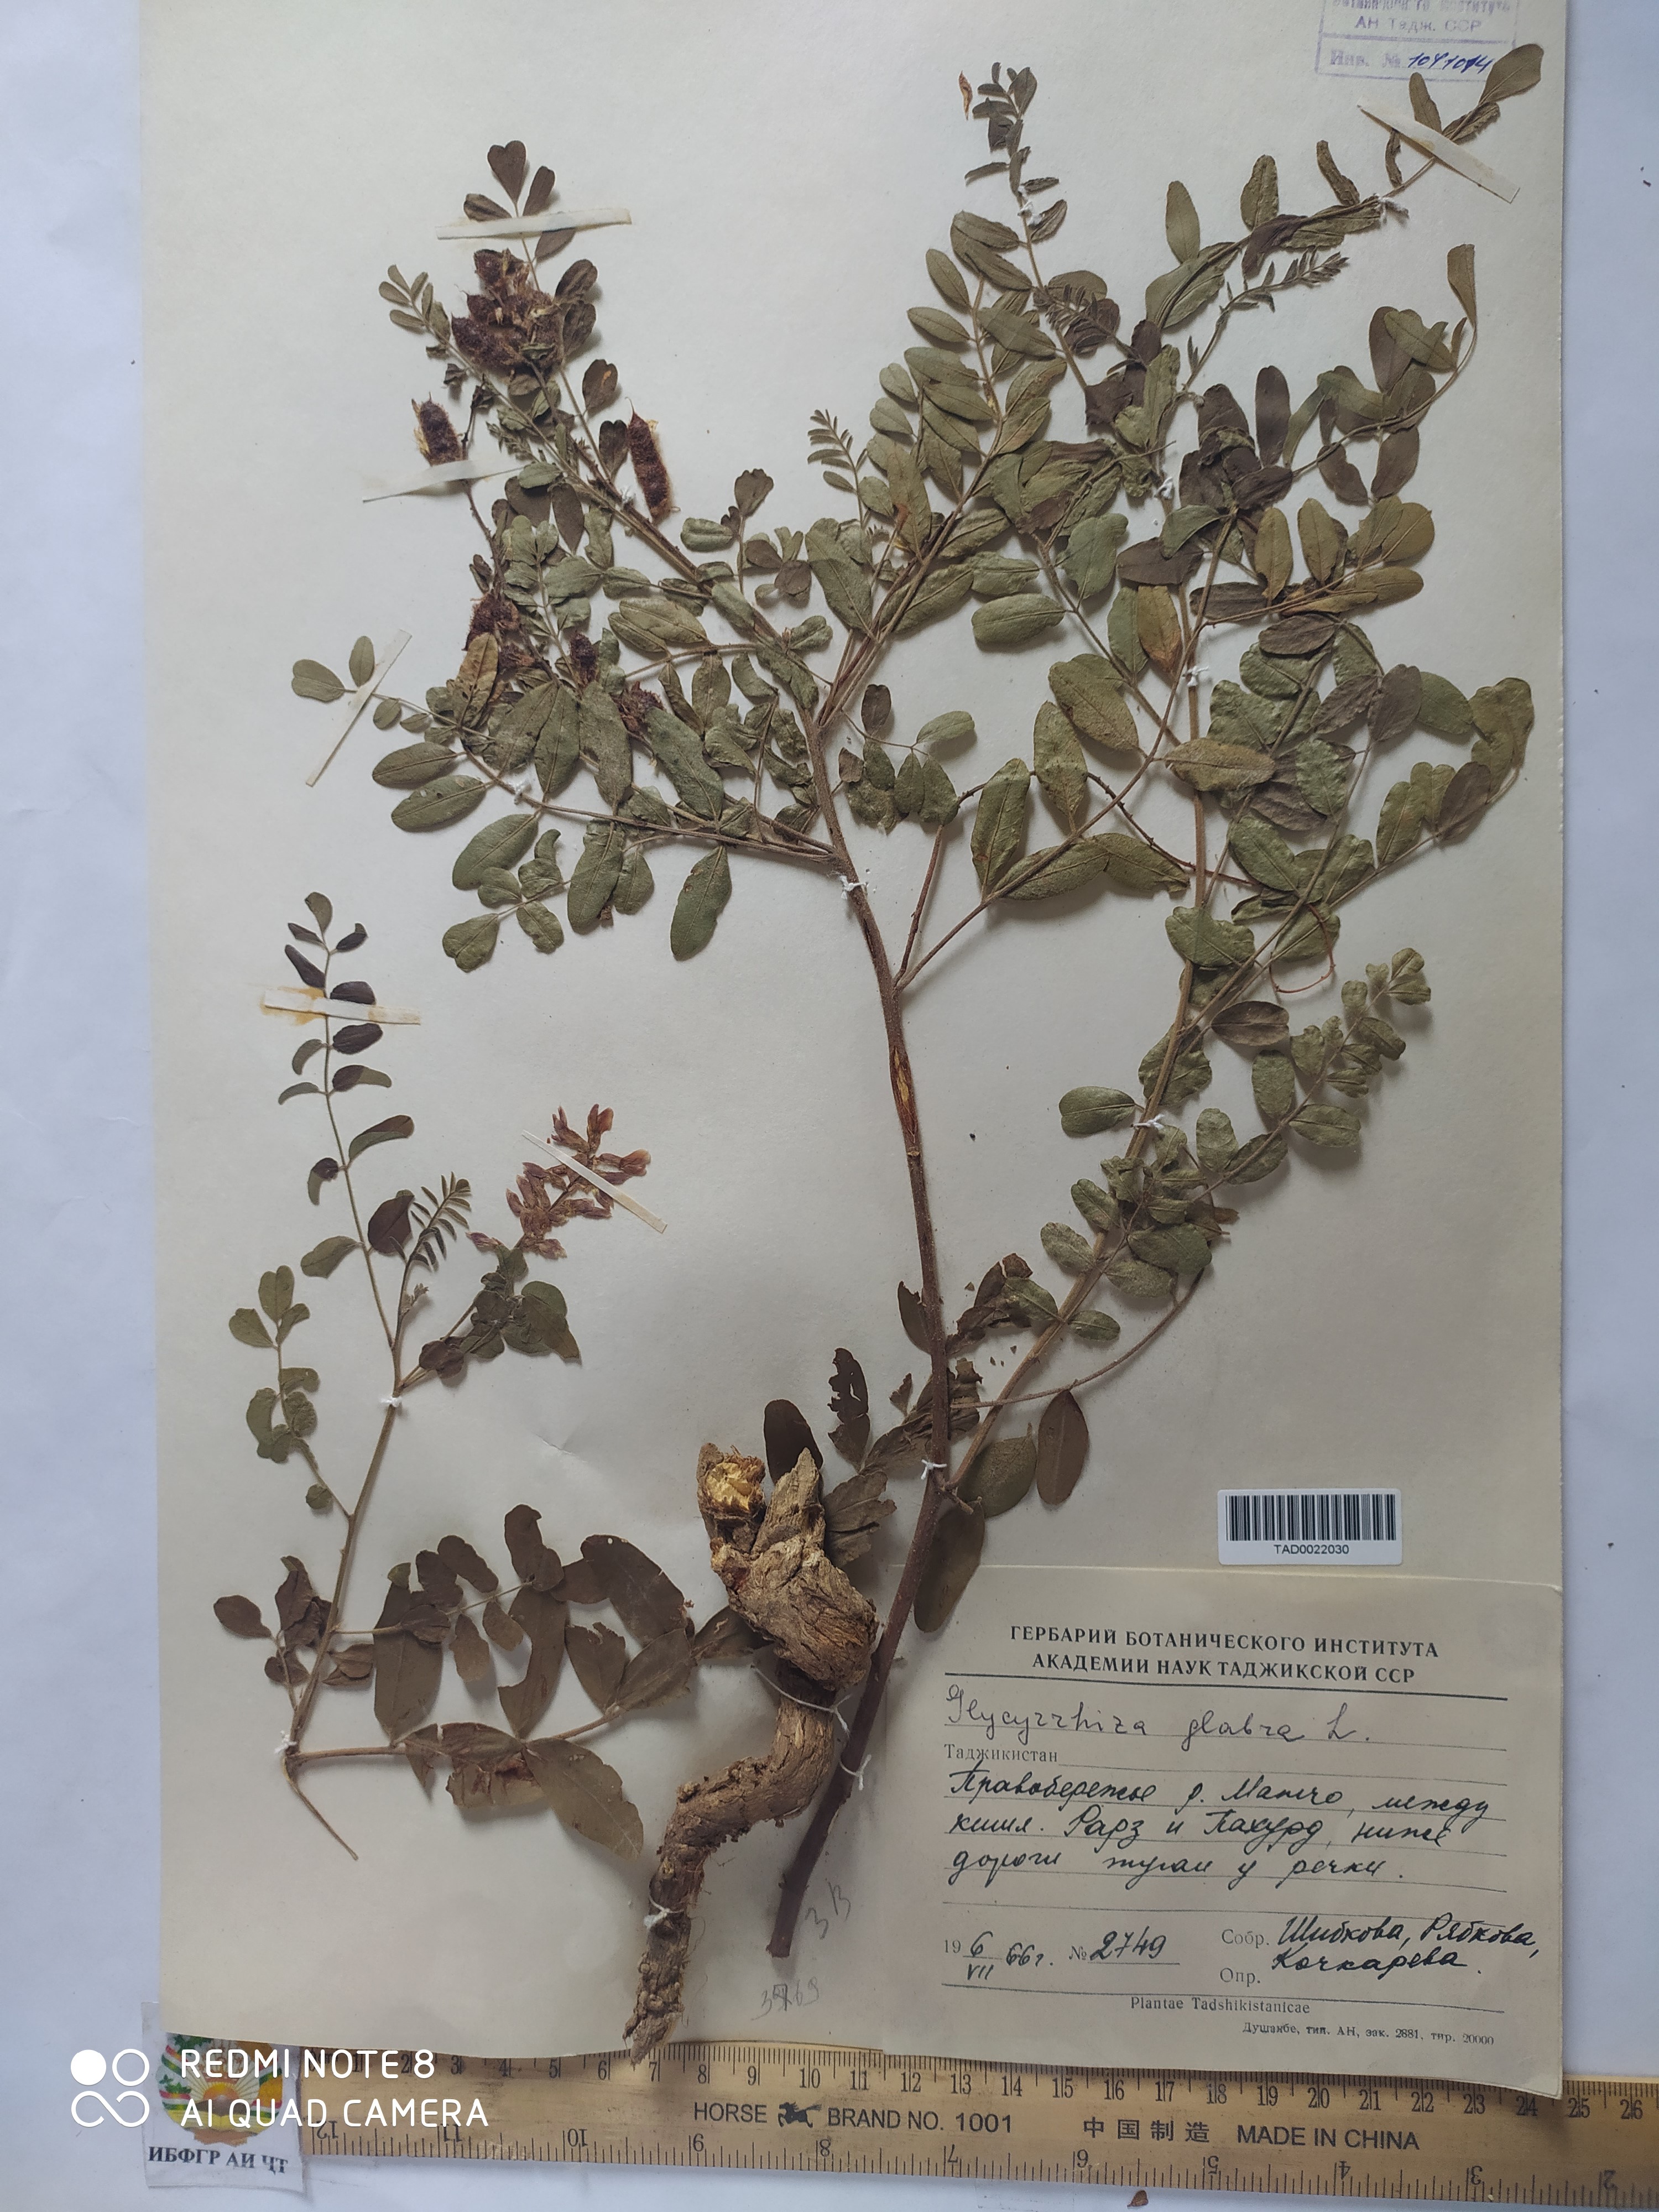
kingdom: Plantae
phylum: Tracheophyta
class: Magnoliopsida
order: Fabales
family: Fabaceae
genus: Glycyrrhiza
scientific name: Glycyrrhiza glabra
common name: Liquorice
